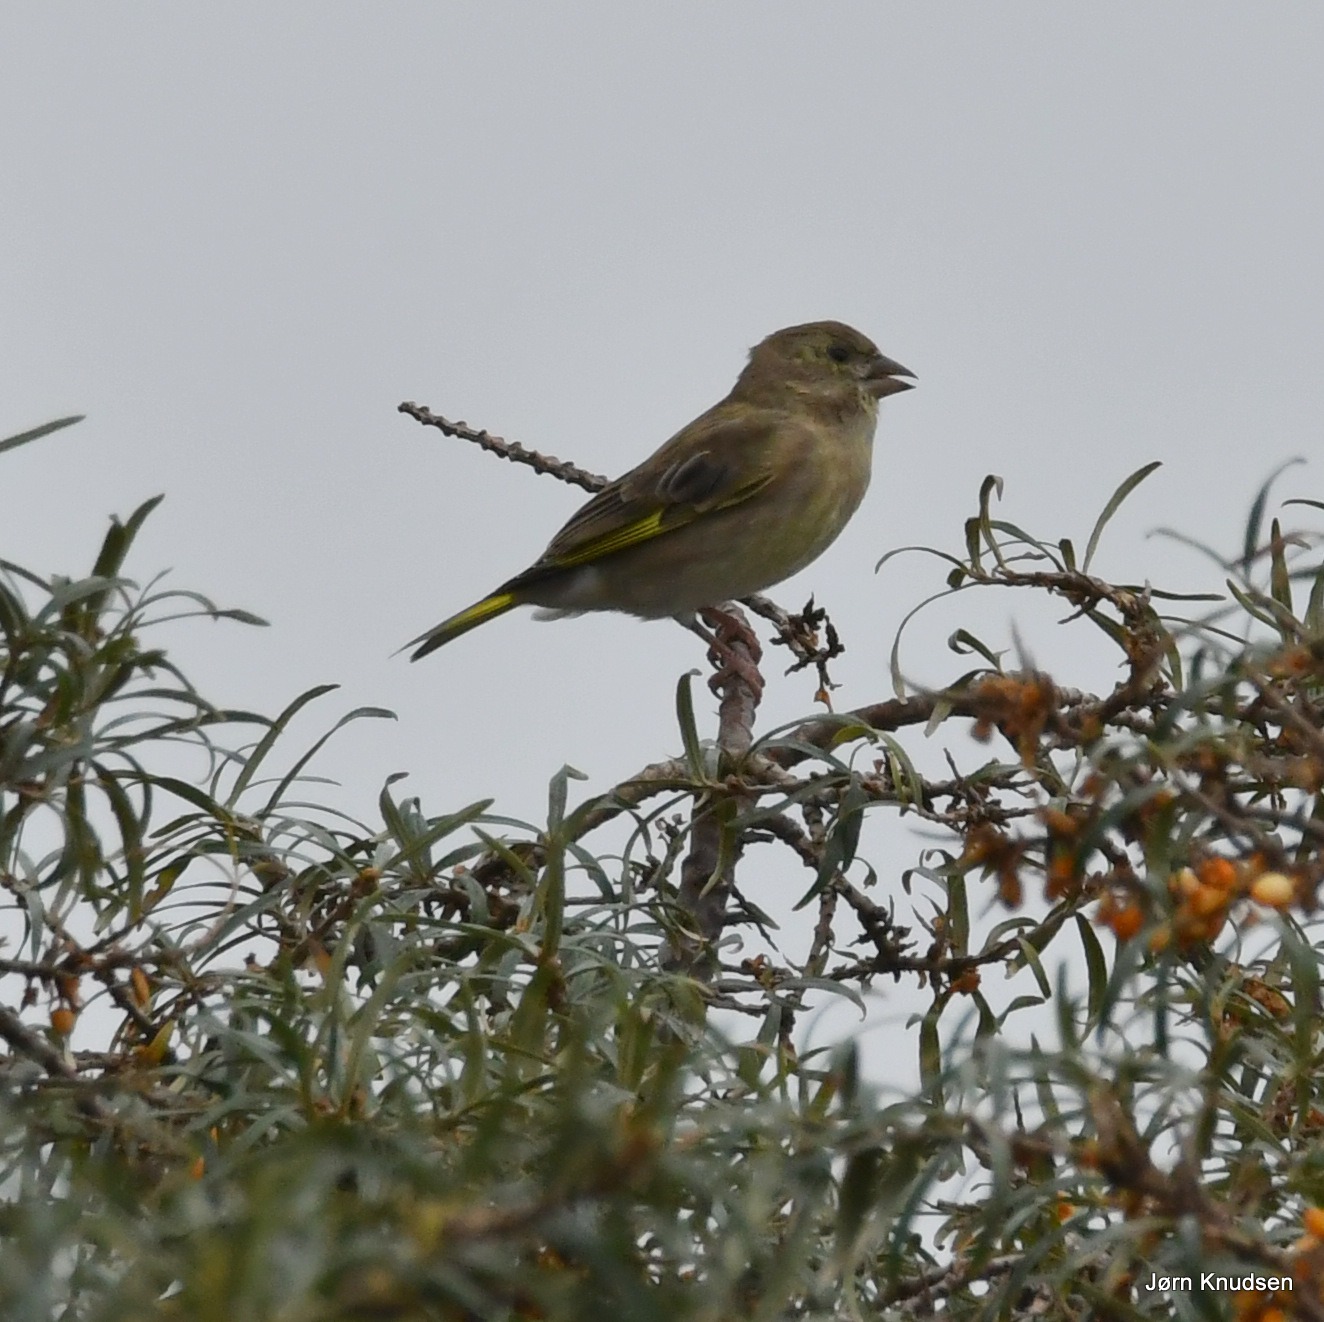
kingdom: Plantae
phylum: Tracheophyta
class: Liliopsida
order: Poales
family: Poaceae
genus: Chloris
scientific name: Chloris chloris
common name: Grønirisk
